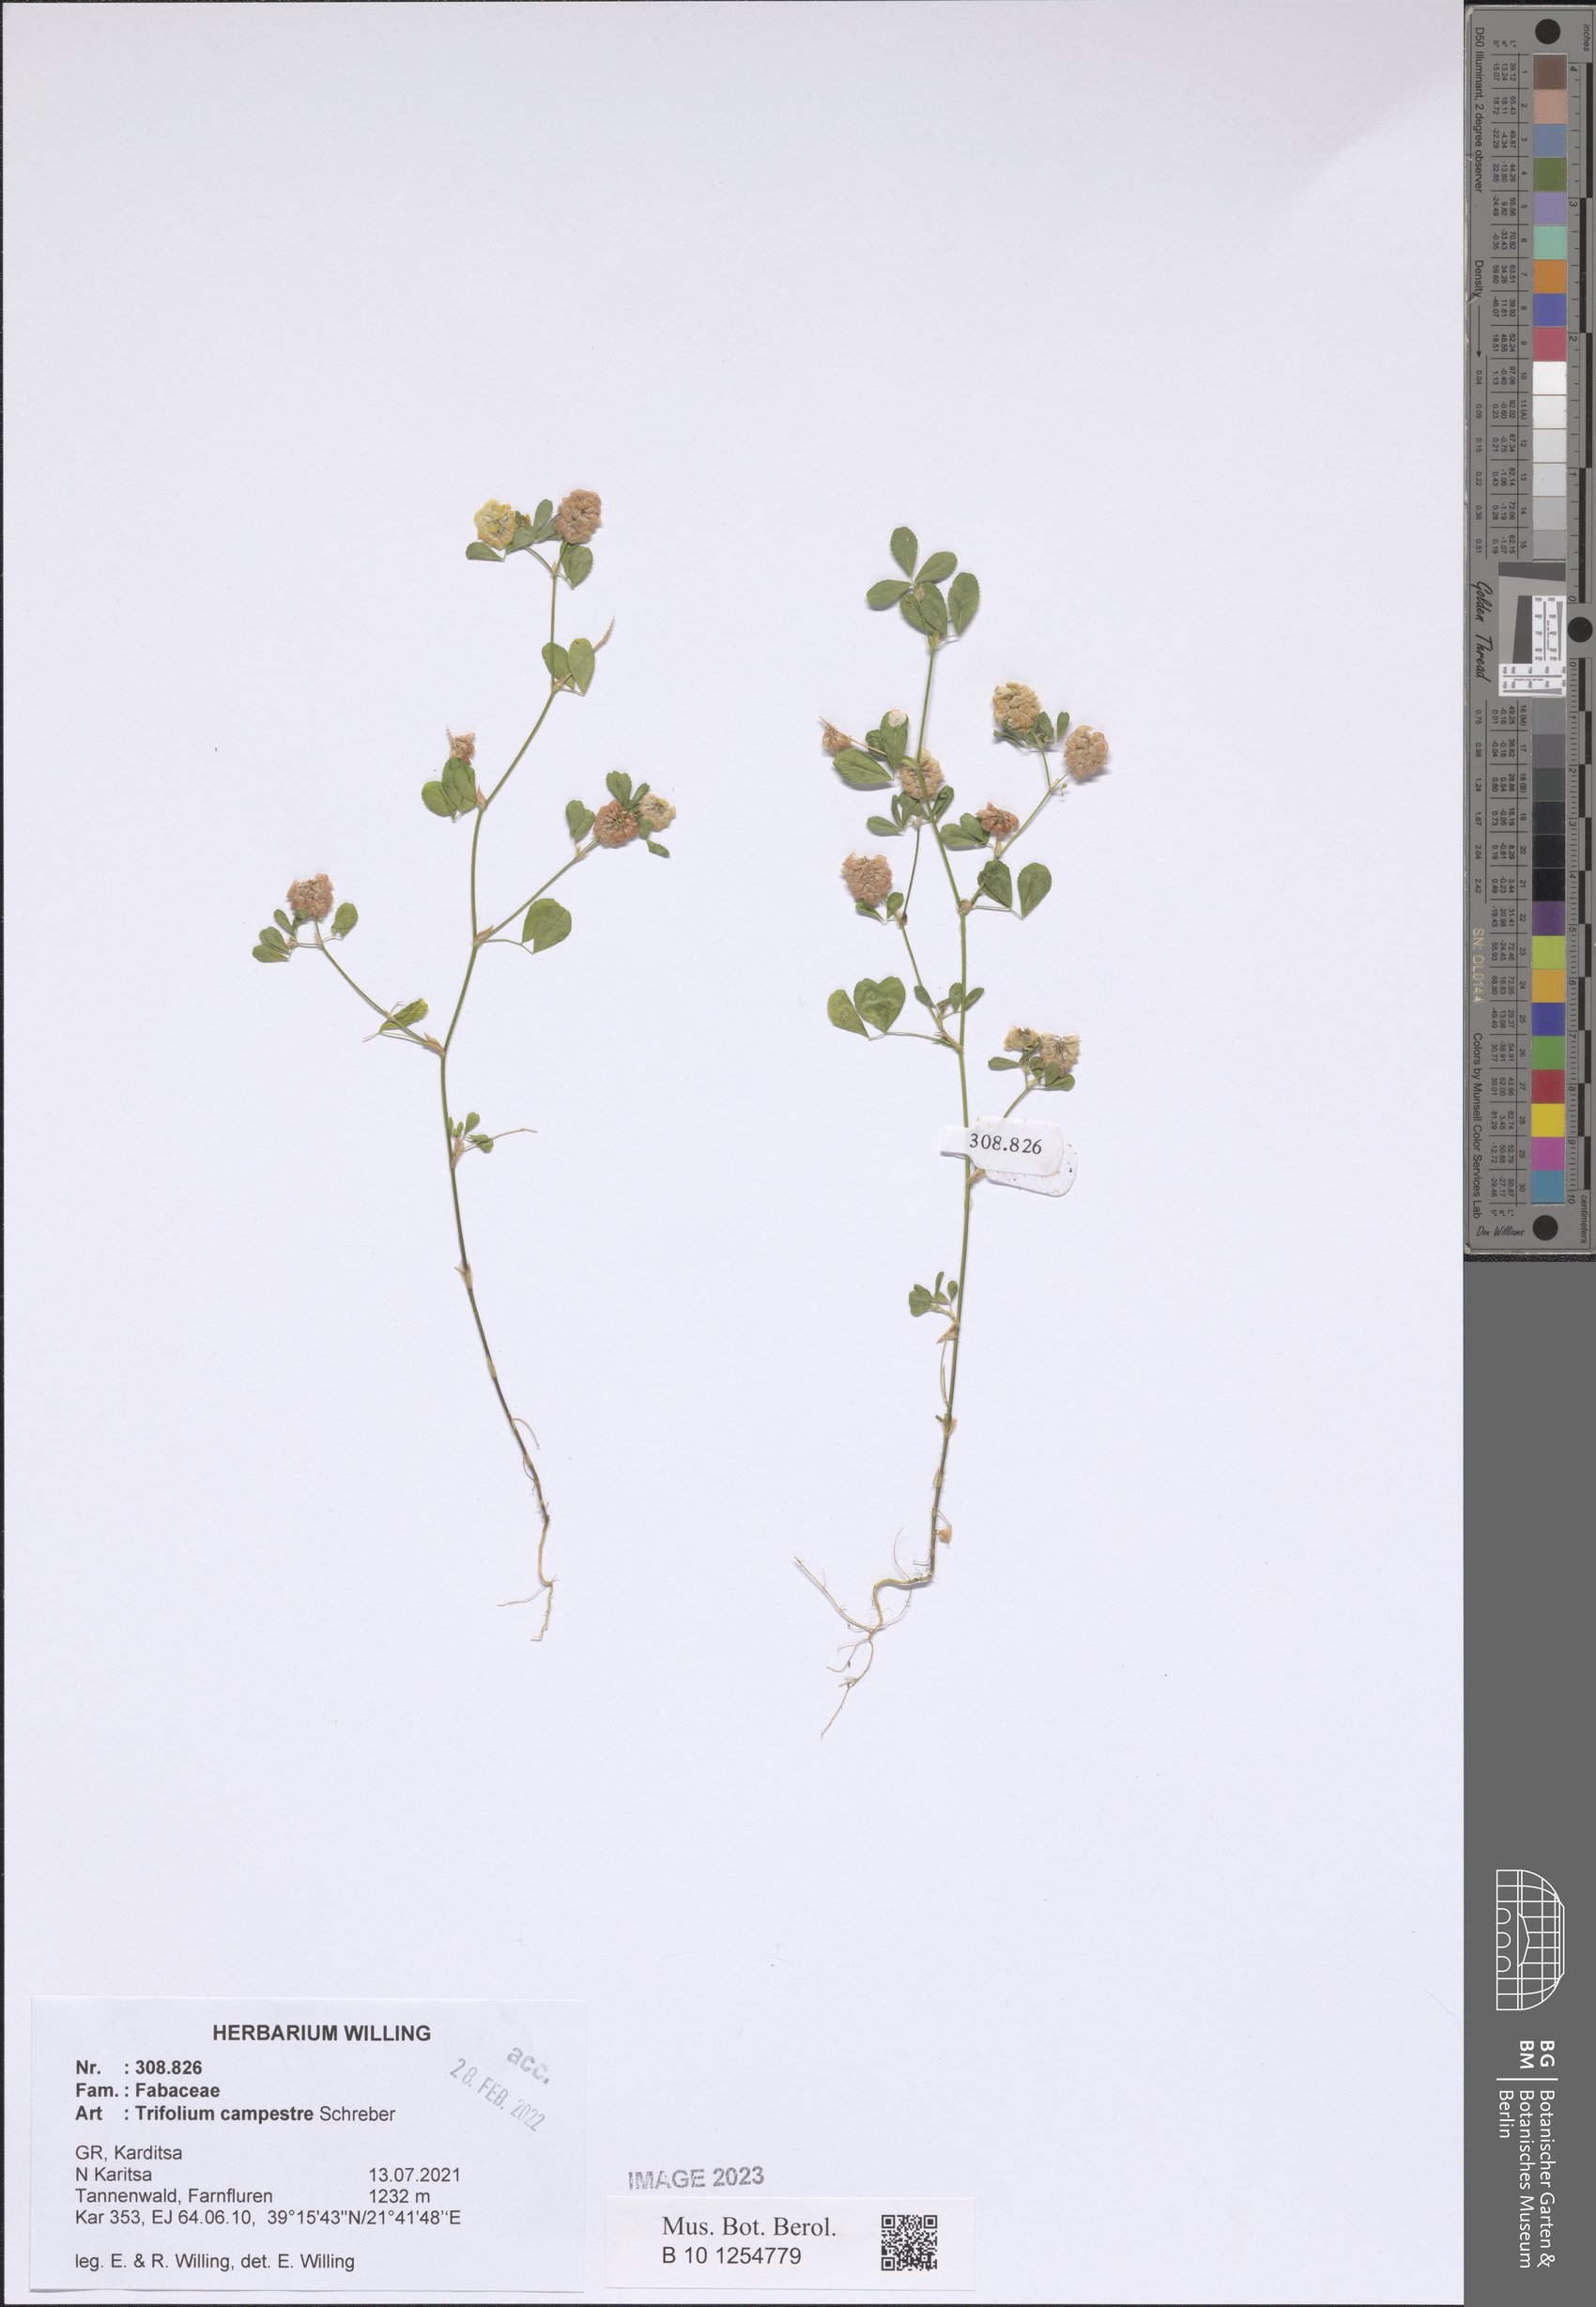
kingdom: Plantae
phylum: Tracheophyta
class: Magnoliopsida
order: Fabales
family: Fabaceae
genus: Trifolium
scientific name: Trifolium campestre
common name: Field clover
